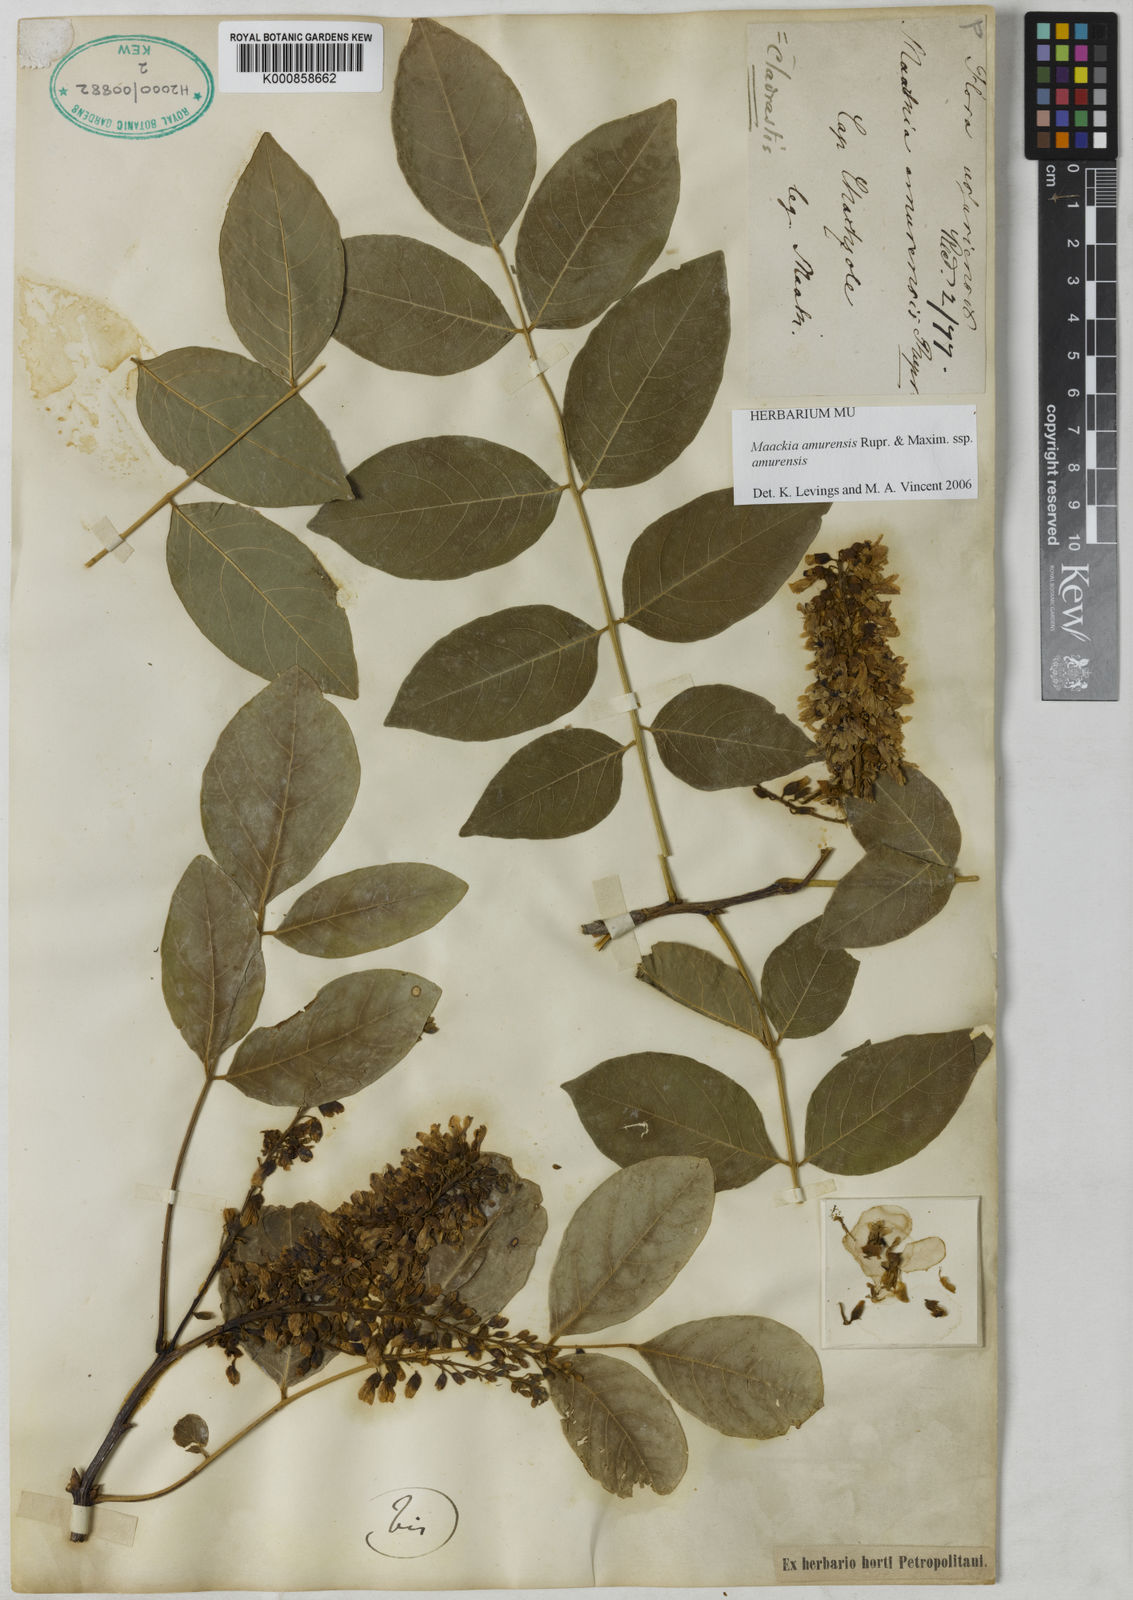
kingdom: Plantae
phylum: Tracheophyta
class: Magnoliopsida
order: Fabales
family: Fabaceae
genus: Maackia
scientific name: Maackia amurensis
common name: Amur maackia
